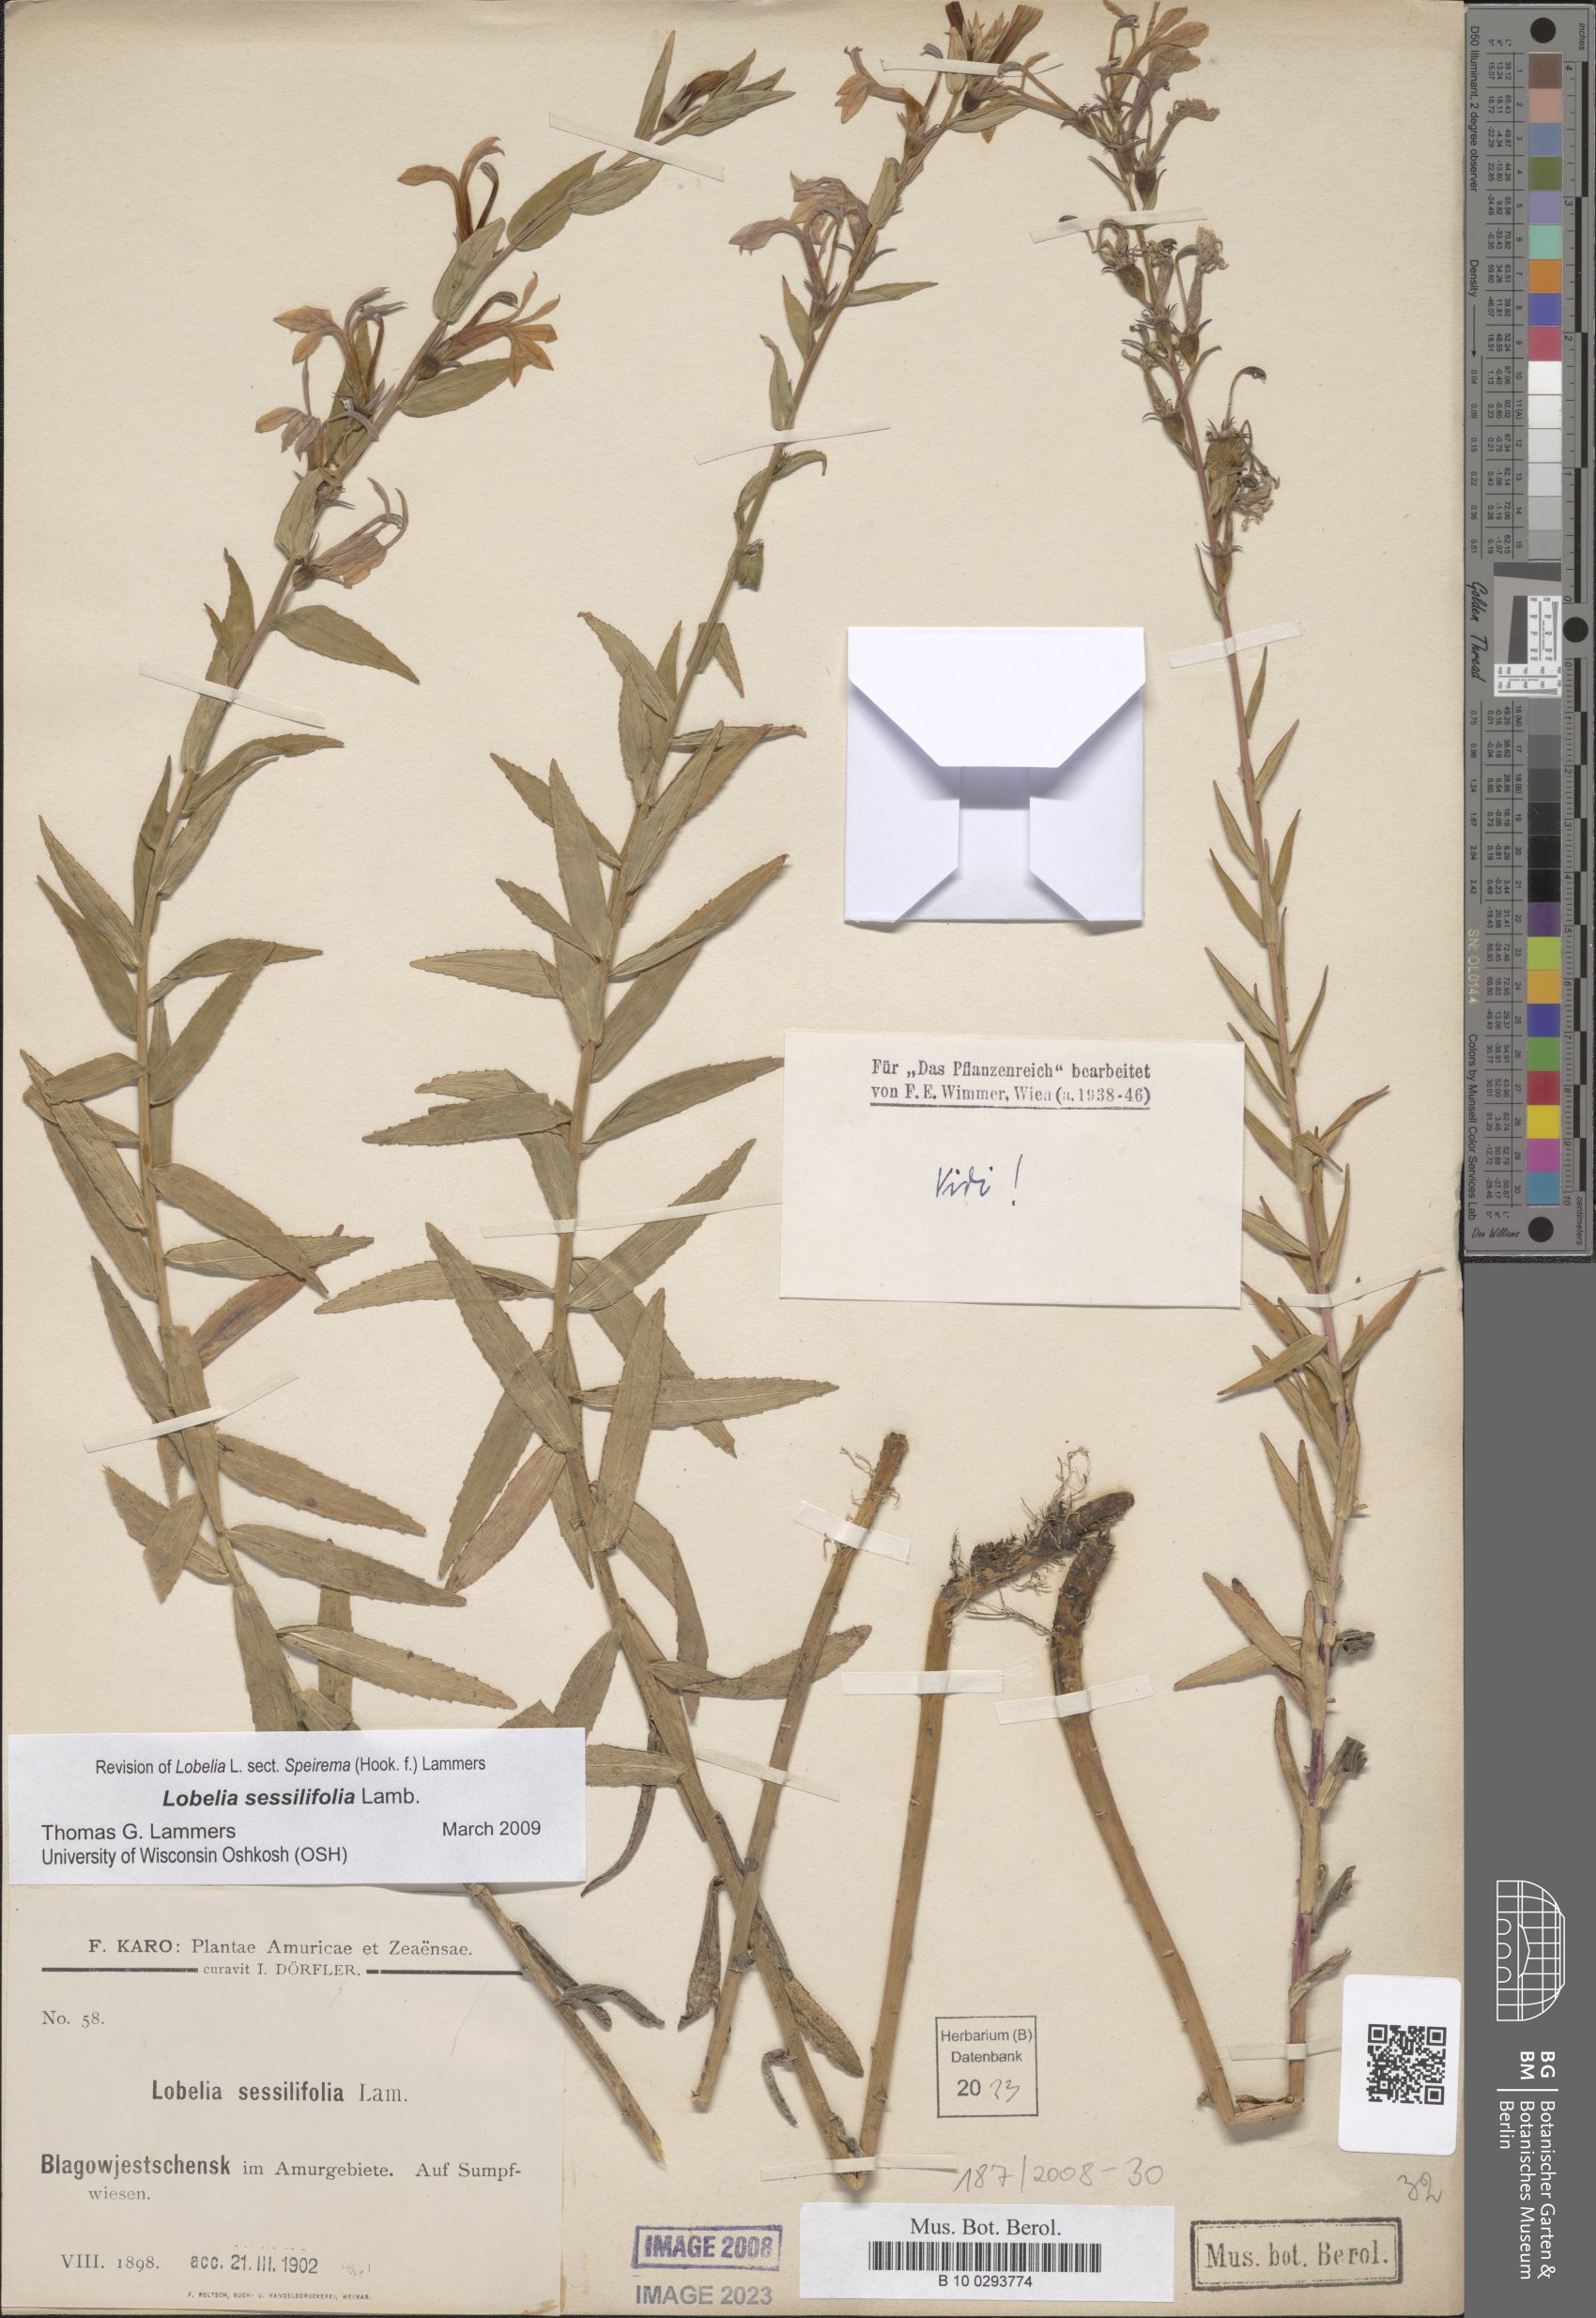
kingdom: Plantae
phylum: Tracheophyta
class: Magnoliopsida
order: Asterales
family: Campanulaceae
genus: Lobelia
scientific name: Lobelia sessilifolia
